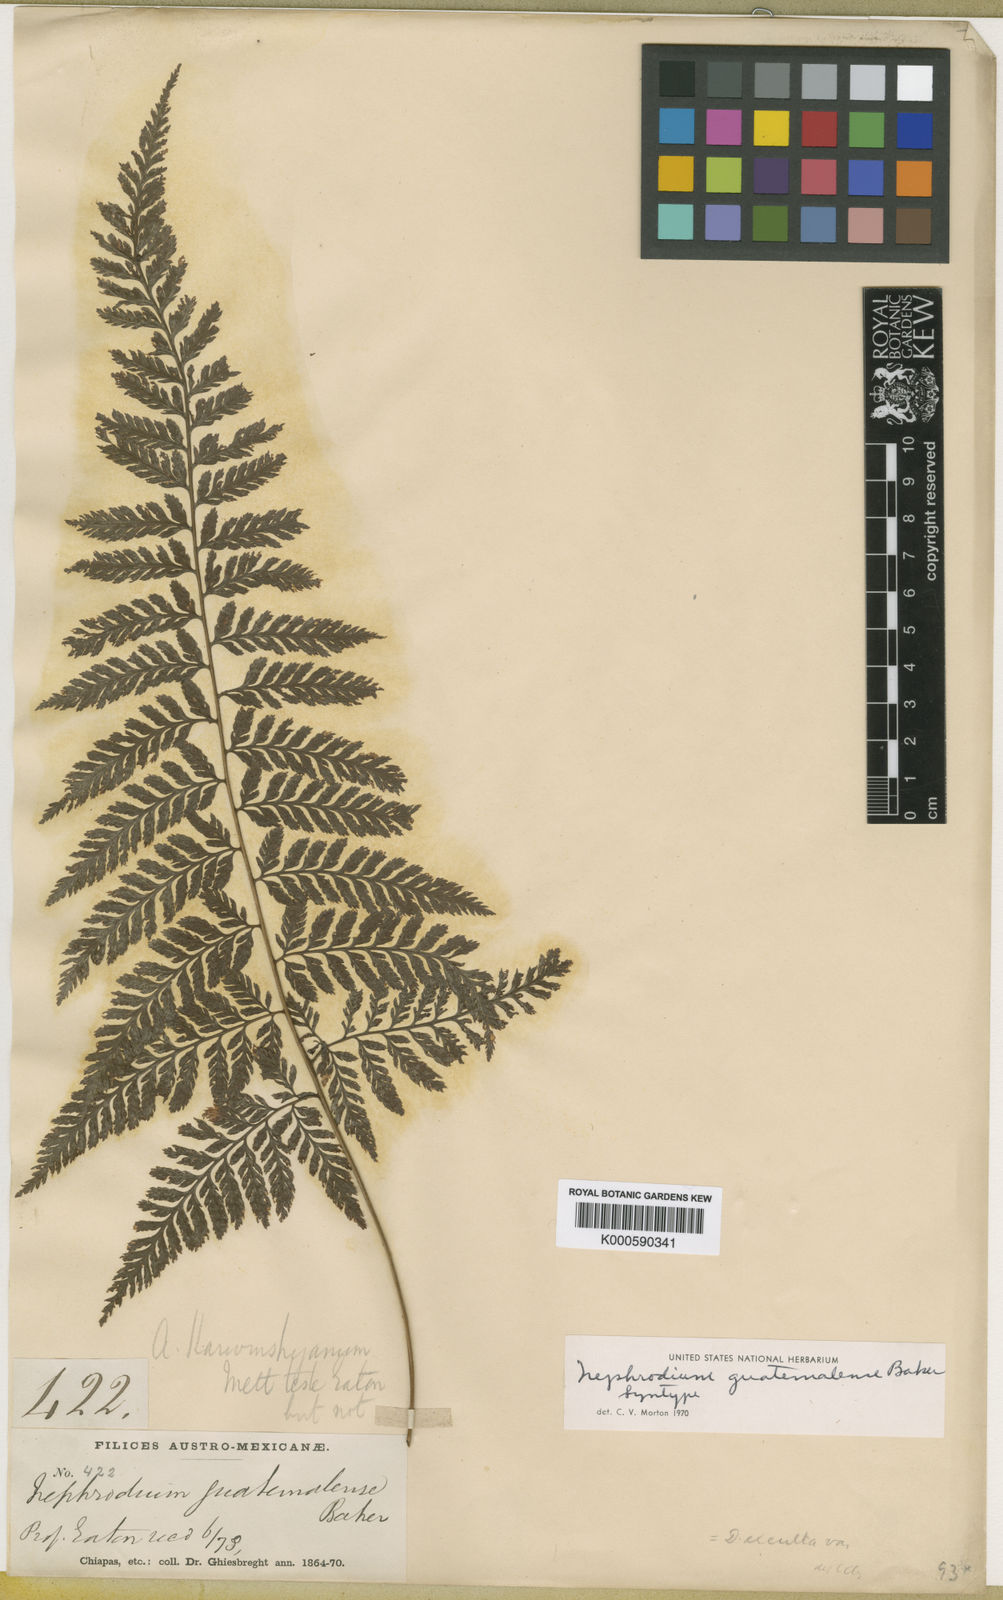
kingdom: Plantae
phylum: Tracheophyta
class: Polypodiopsida
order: Polypodiales
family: Dryopteridaceae
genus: Parapolystichum
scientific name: Parapolystichum excultum
